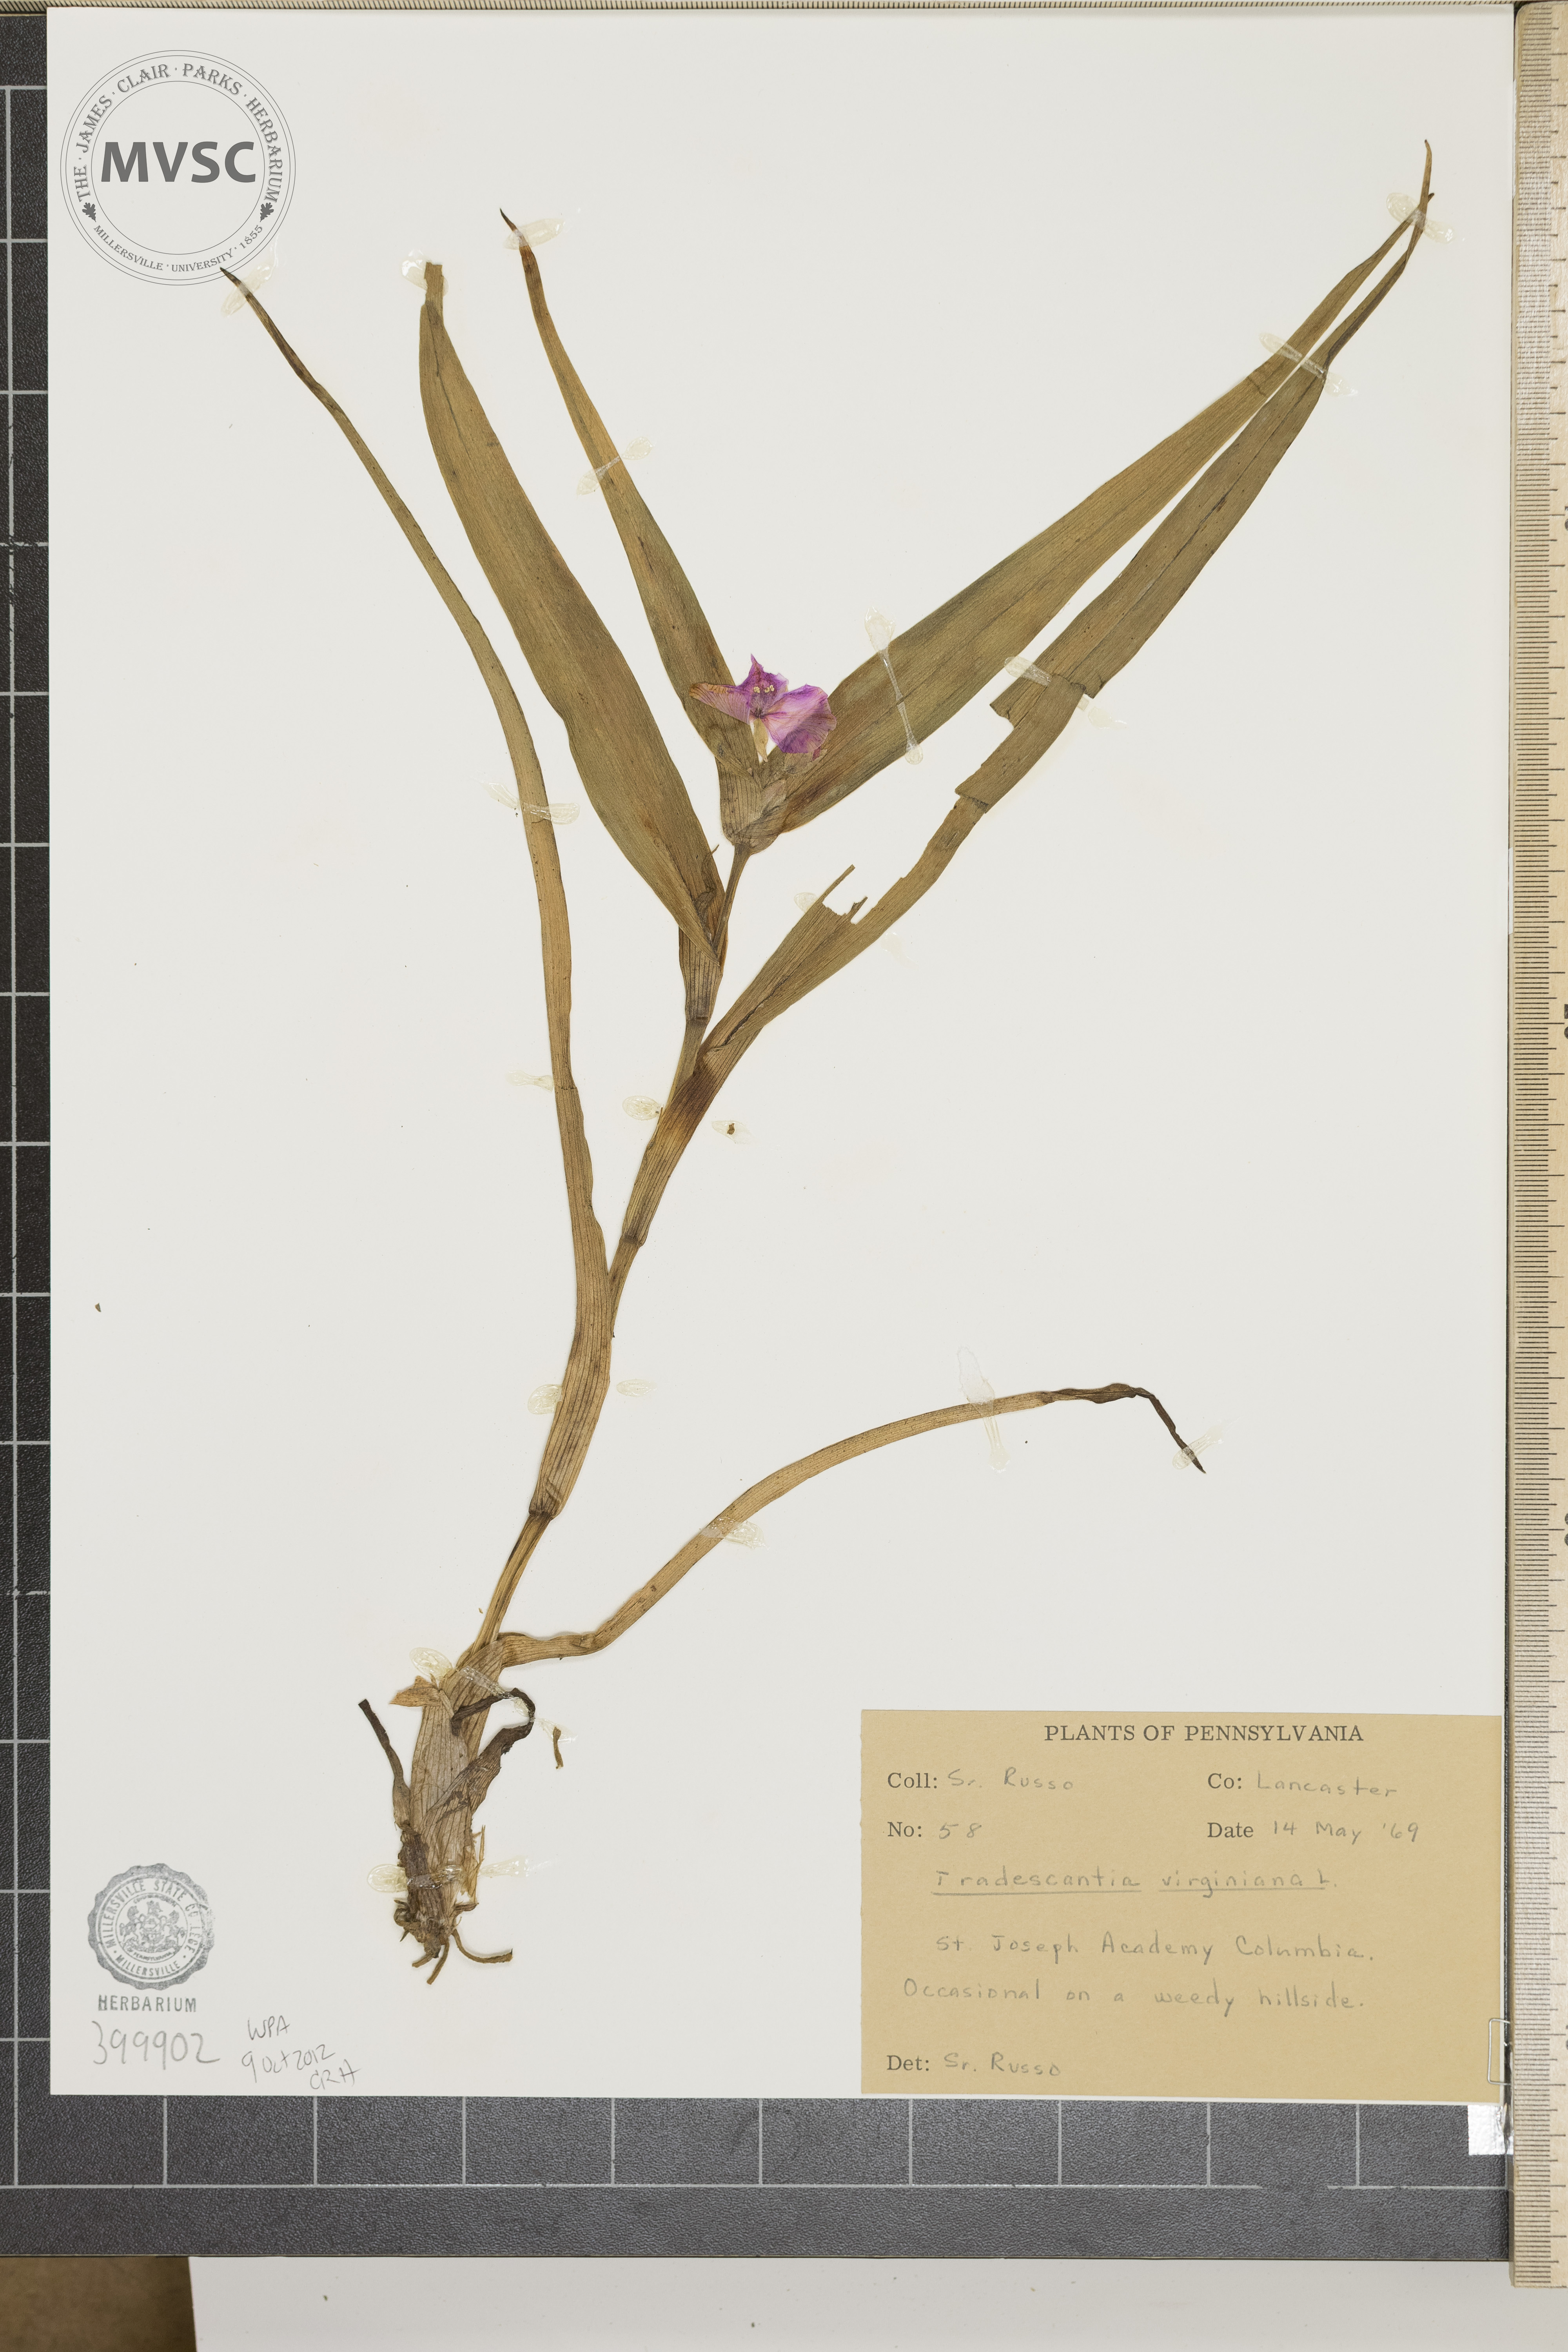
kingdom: Plantae
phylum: Tracheophyta
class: Liliopsida
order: Commelinales
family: Commelinaceae
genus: Tradescantia
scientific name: Tradescantia virginiana
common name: Virginia spiderwort
